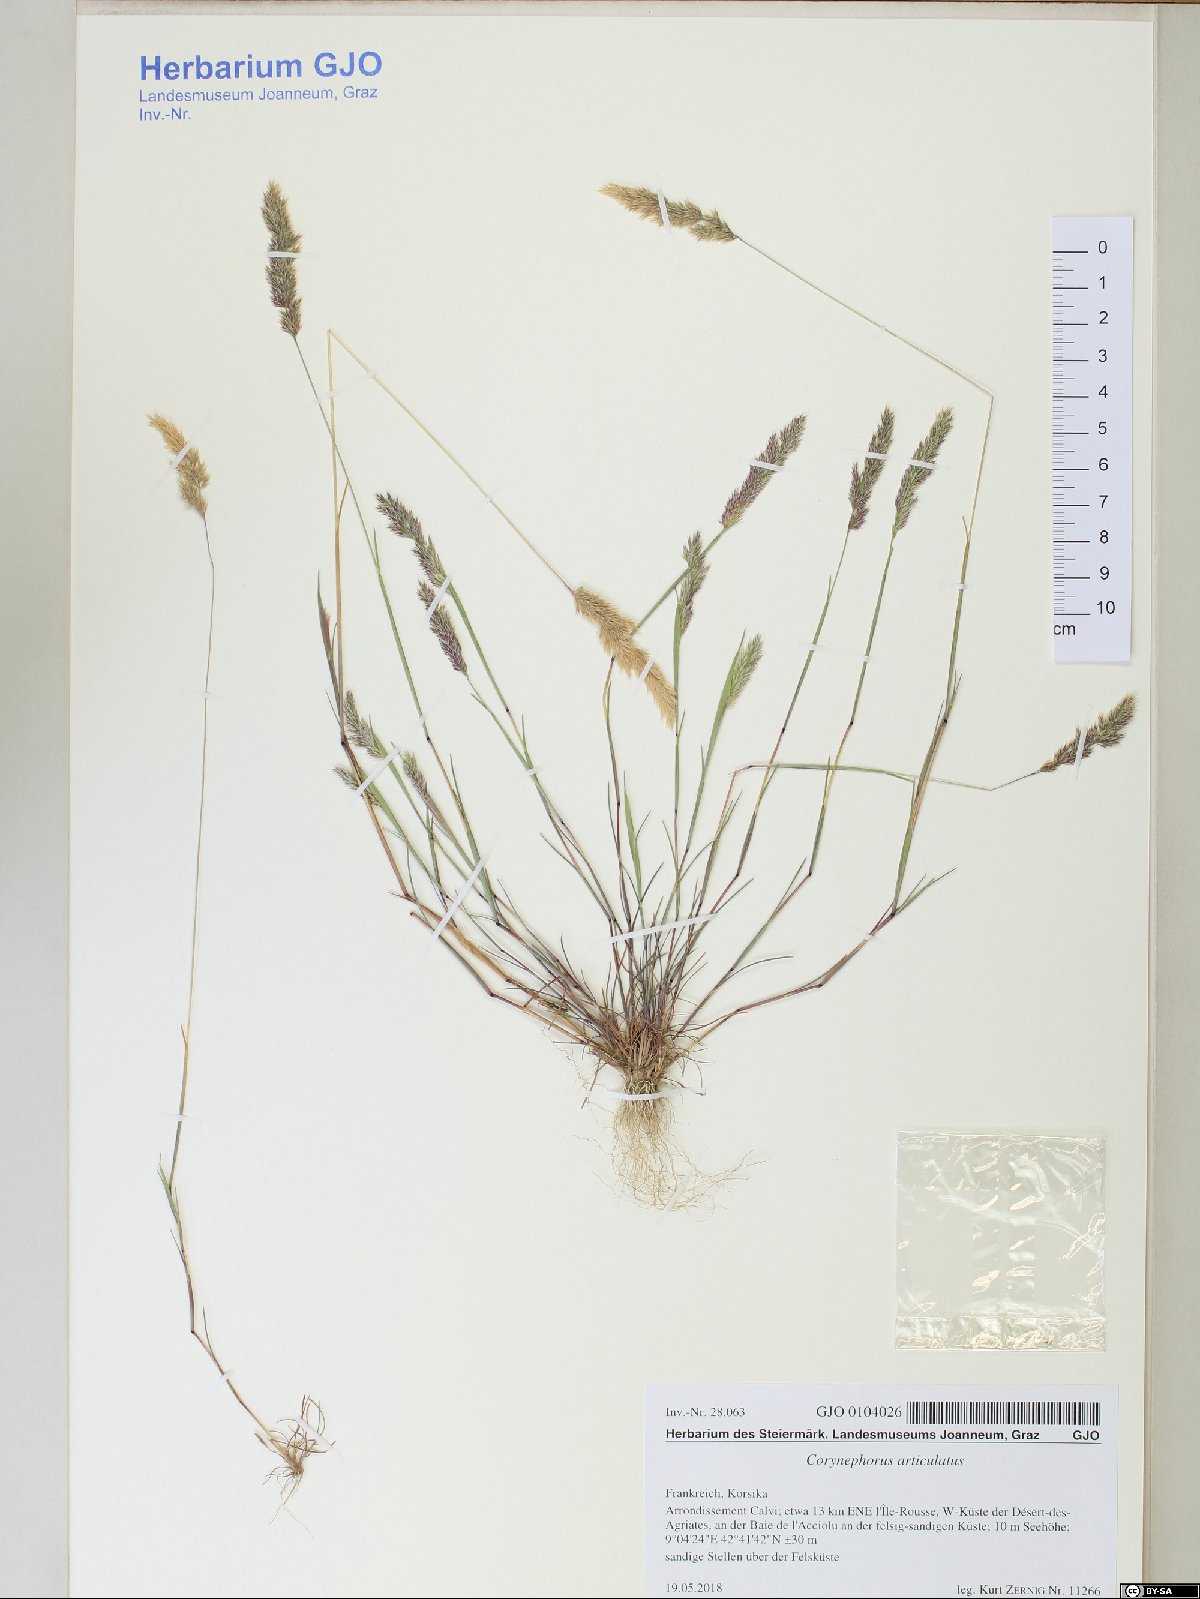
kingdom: Plantae
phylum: Tracheophyta
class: Liliopsida
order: Poales
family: Poaceae
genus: Corynephorus
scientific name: Corynephorus articulatus
